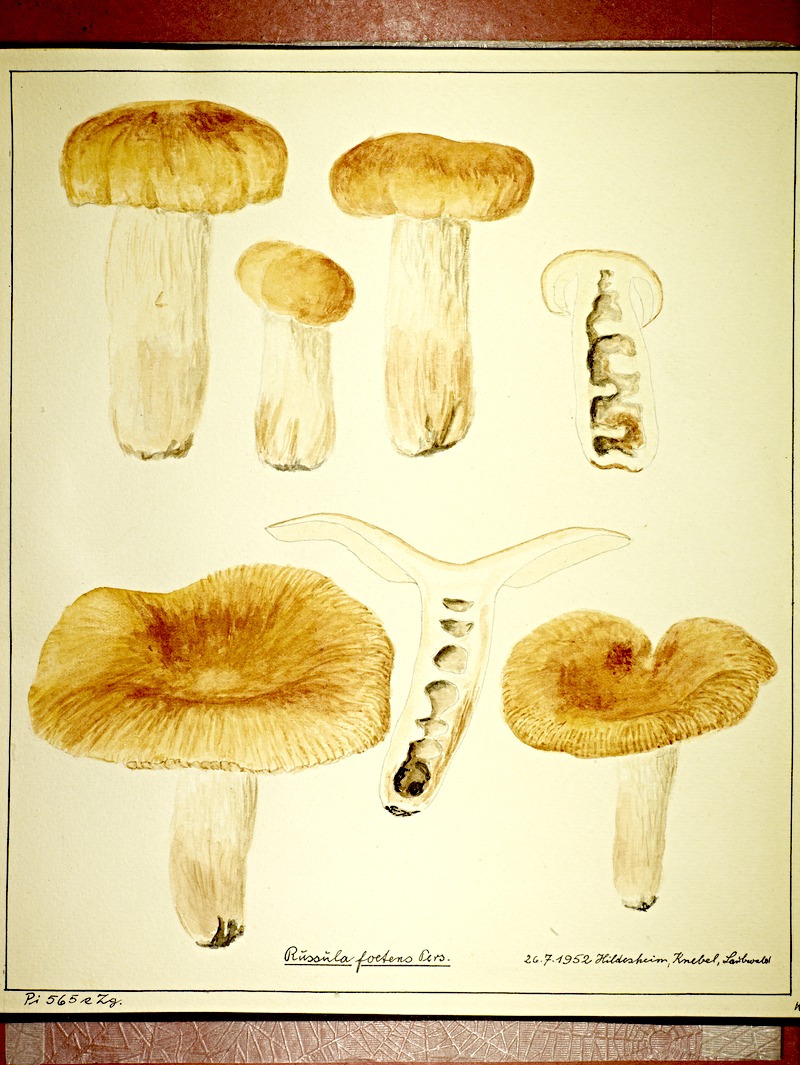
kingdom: Fungi
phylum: Basidiomycota
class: Agaricomycetes
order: Russulales
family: Russulaceae
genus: Russula
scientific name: Russula foetens
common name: Foetid russula
